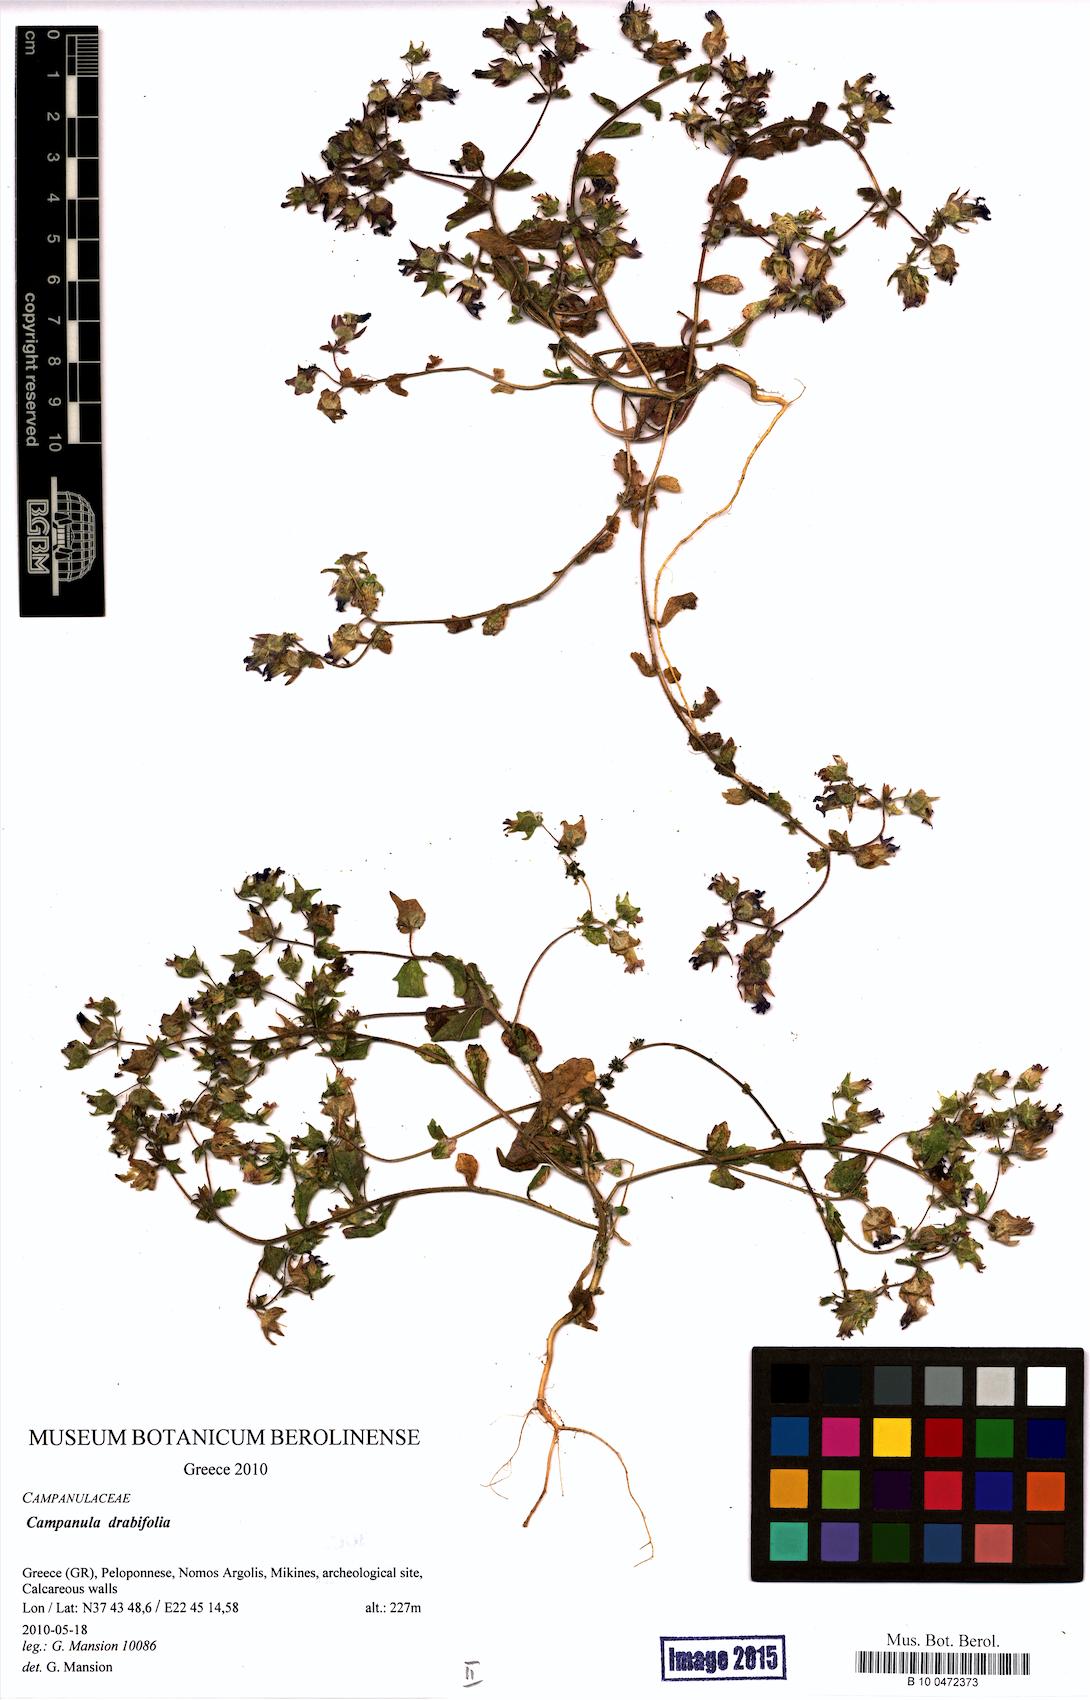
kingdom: Plantae
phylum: Tracheophyta
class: Magnoliopsida
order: Asterales
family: Campanulaceae
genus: Campanula
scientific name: Campanula drabifolia
